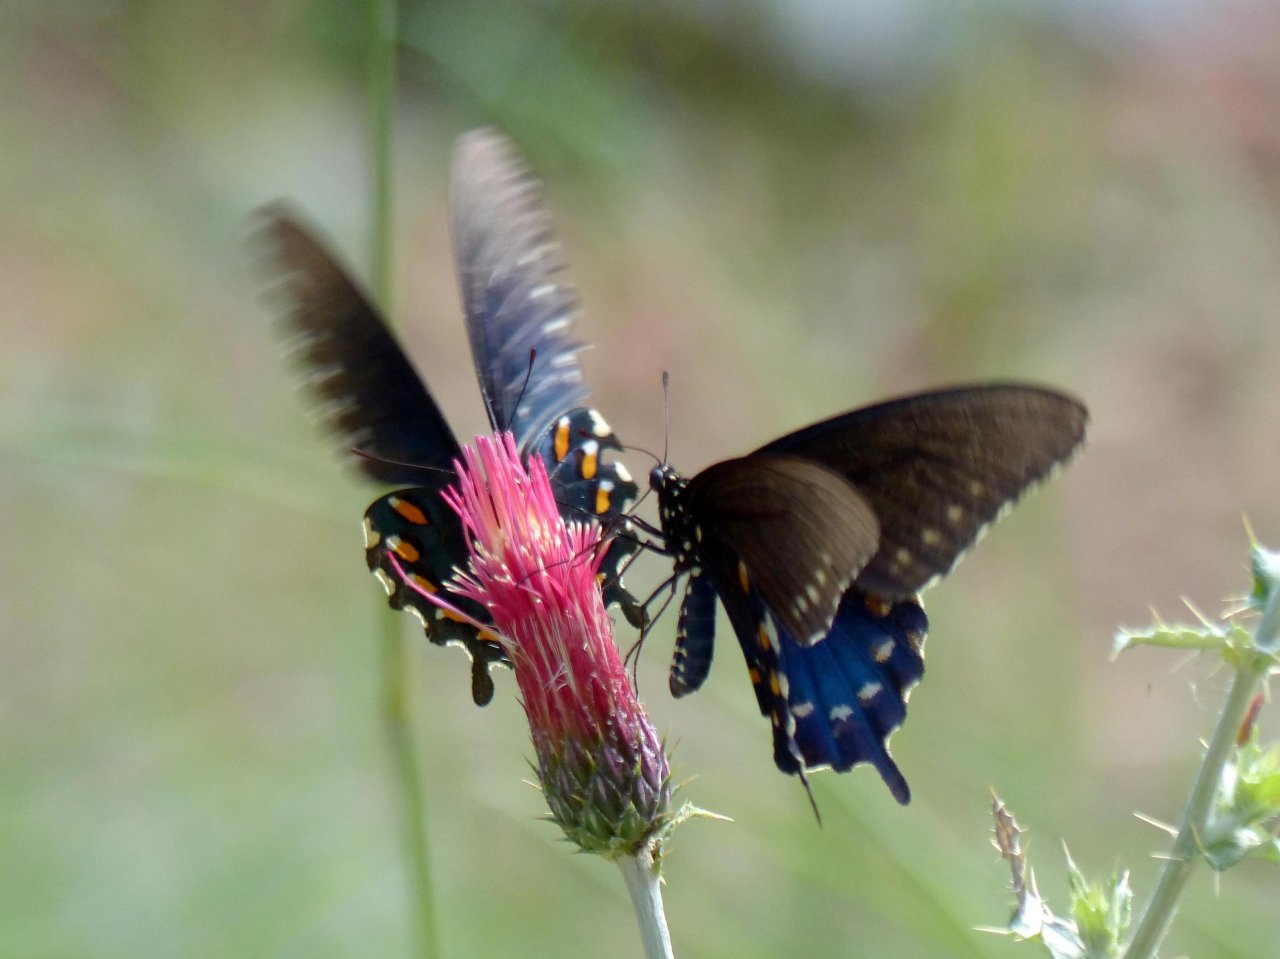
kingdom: Animalia
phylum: Arthropoda
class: Insecta
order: Lepidoptera
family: Papilionidae
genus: Battus
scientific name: Battus philenor
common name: Pipevine Swallowtail
